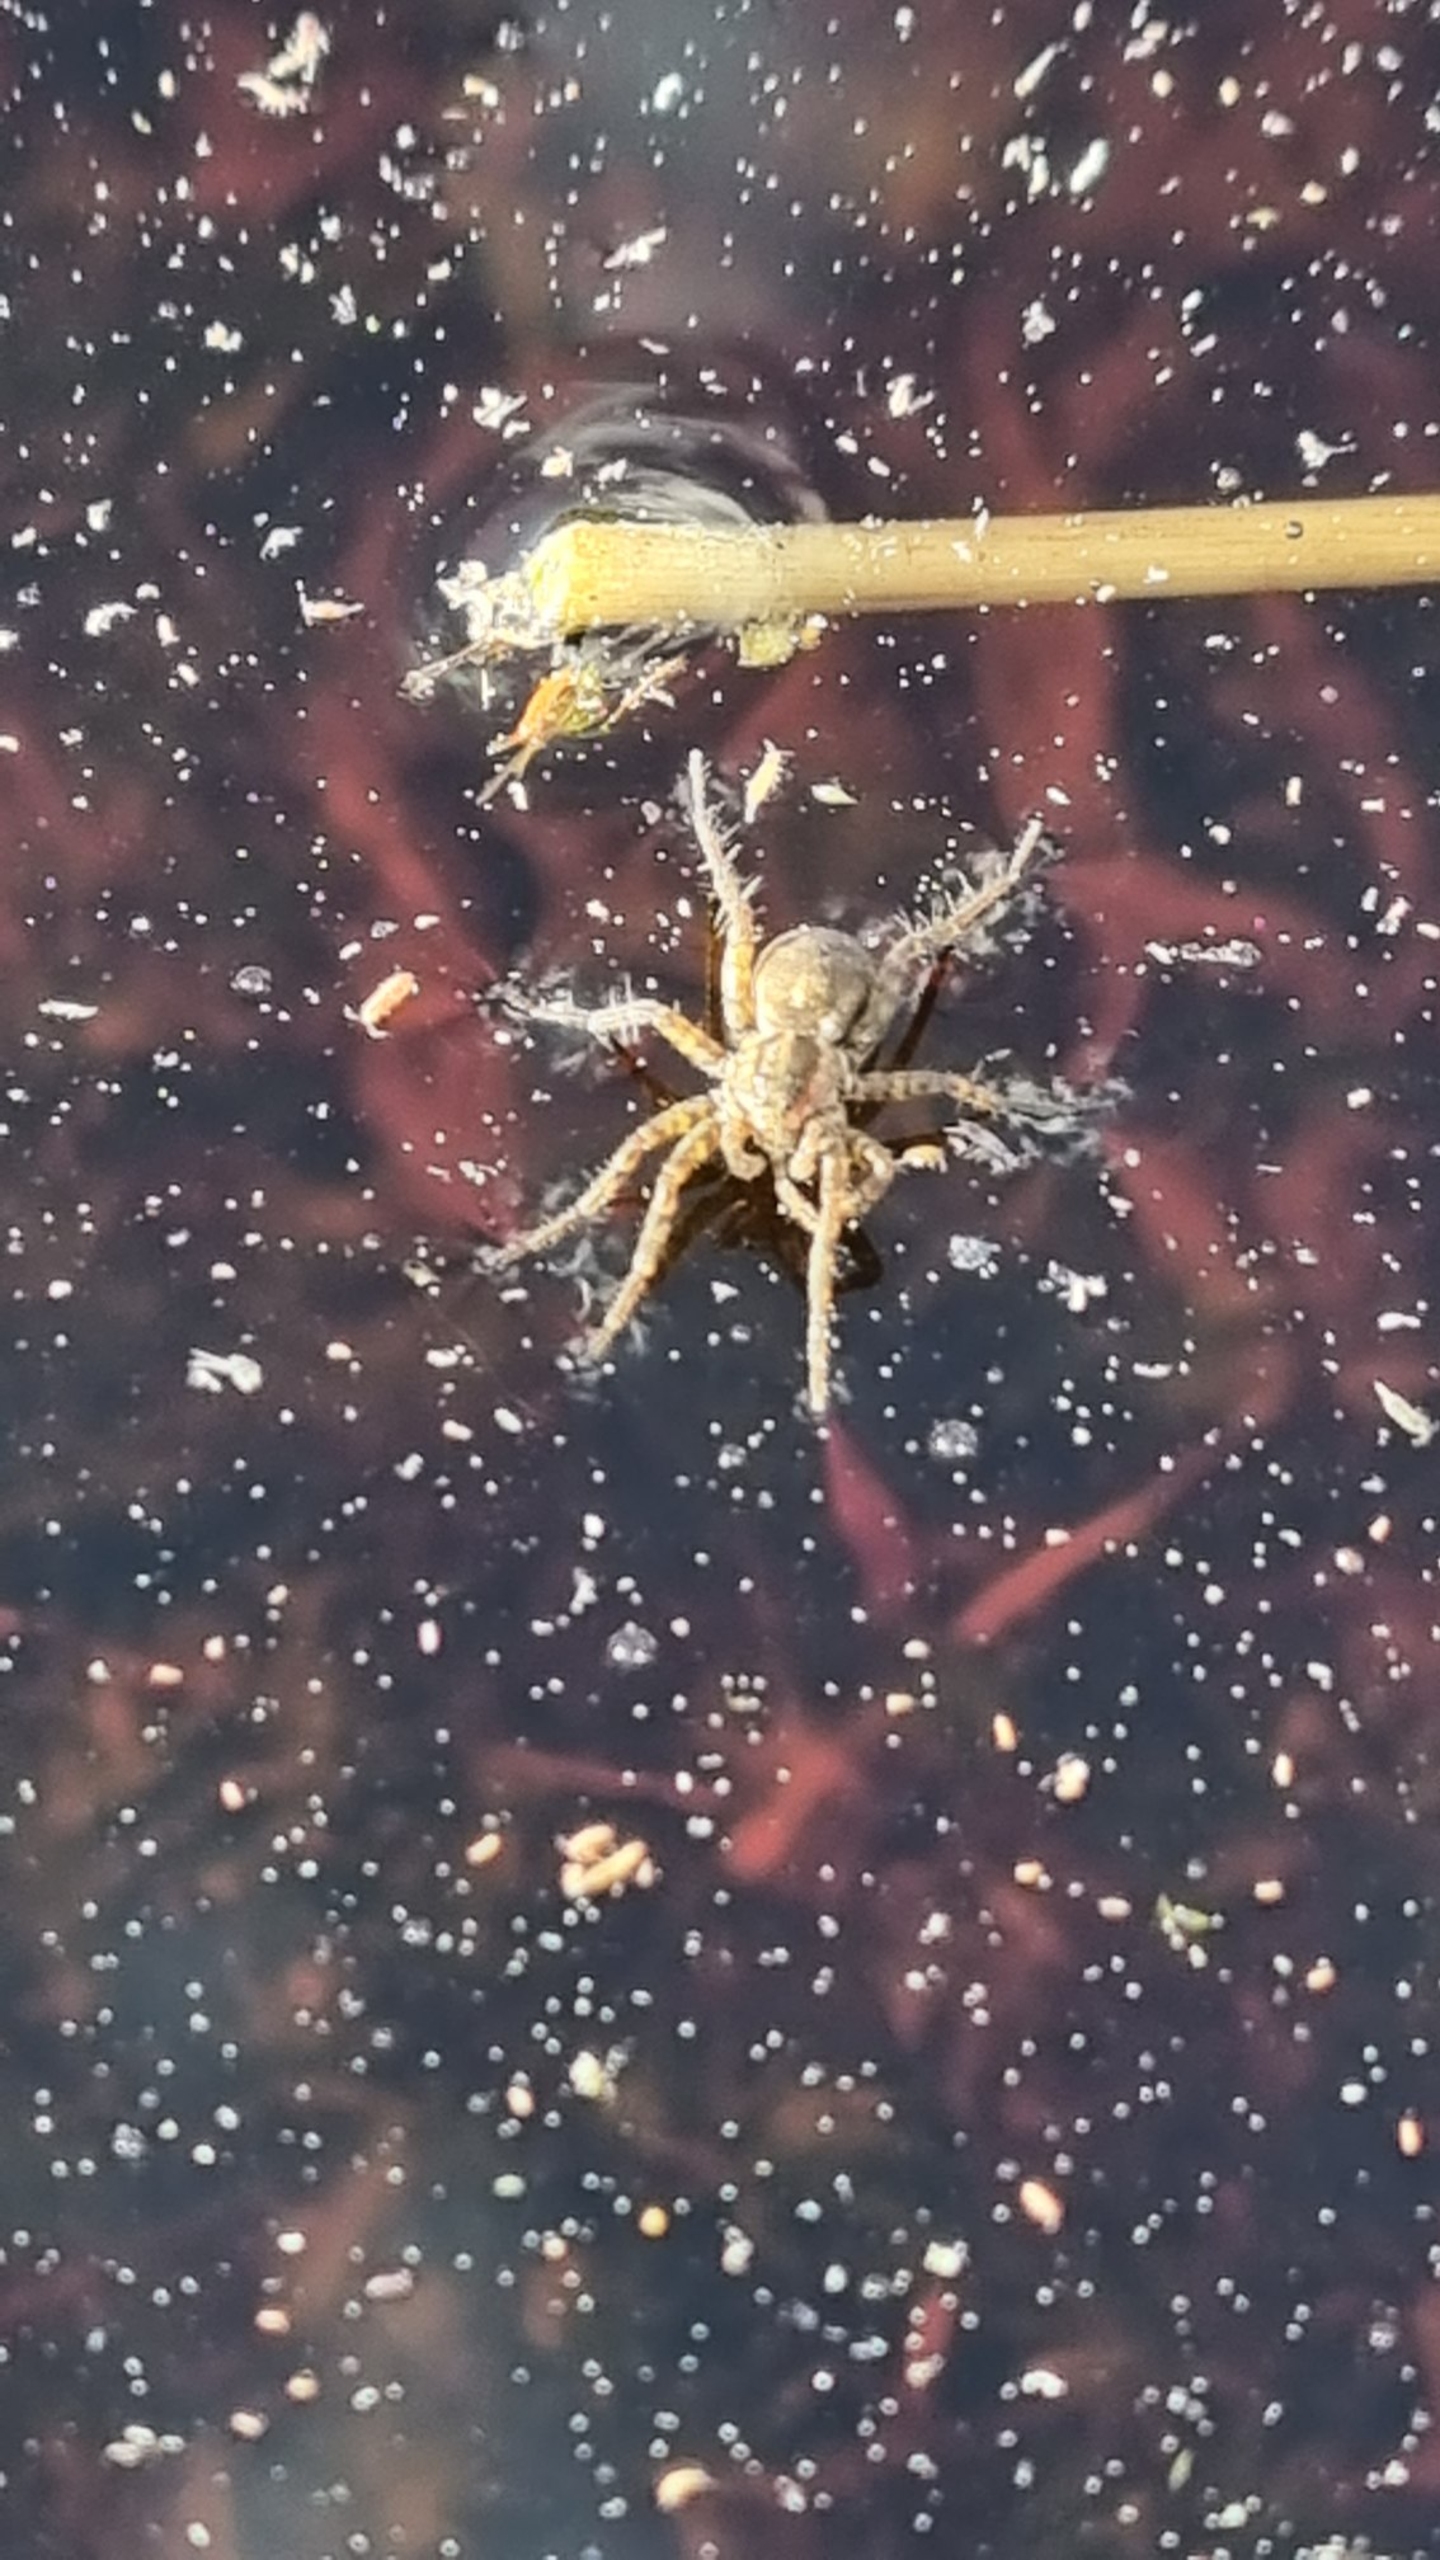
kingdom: Animalia
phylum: Arthropoda
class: Arachnida
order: Araneae
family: Lycosidae
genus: Pardosa
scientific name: Pardosa
